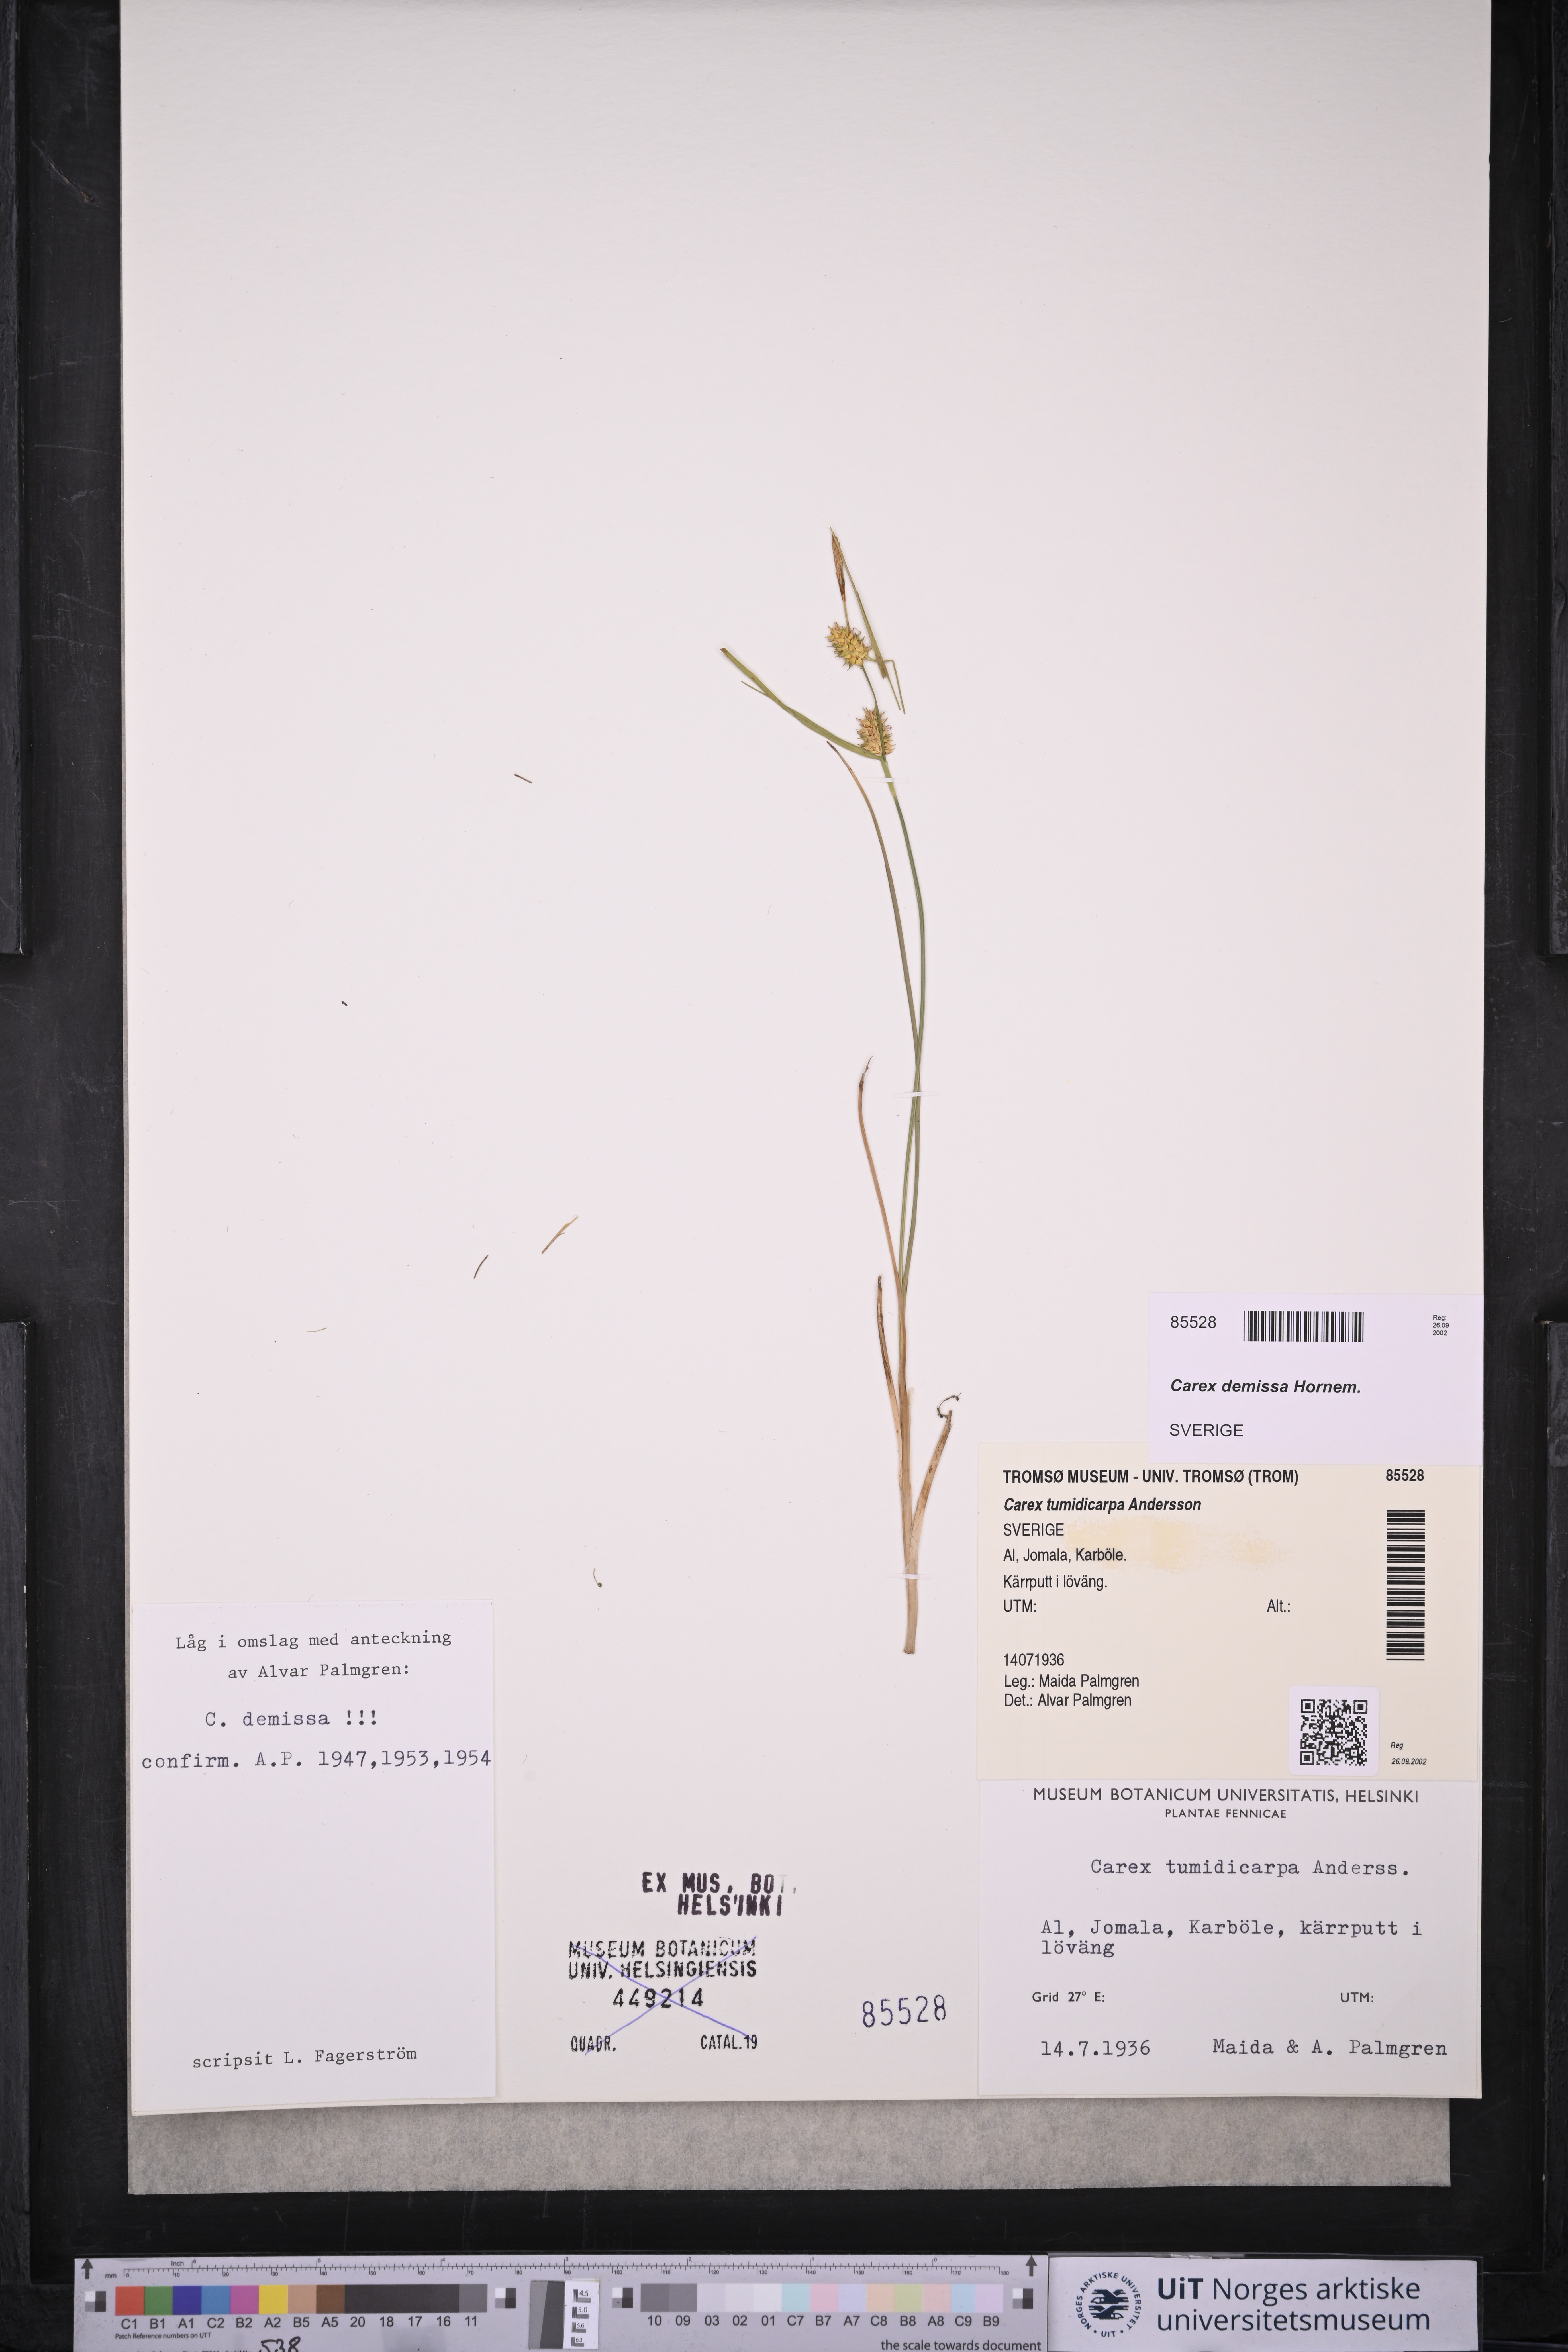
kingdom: Plantae
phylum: Tracheophyta
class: Liliopsida
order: Poales
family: Cyperaceae
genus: Carex
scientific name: Carex demissa
